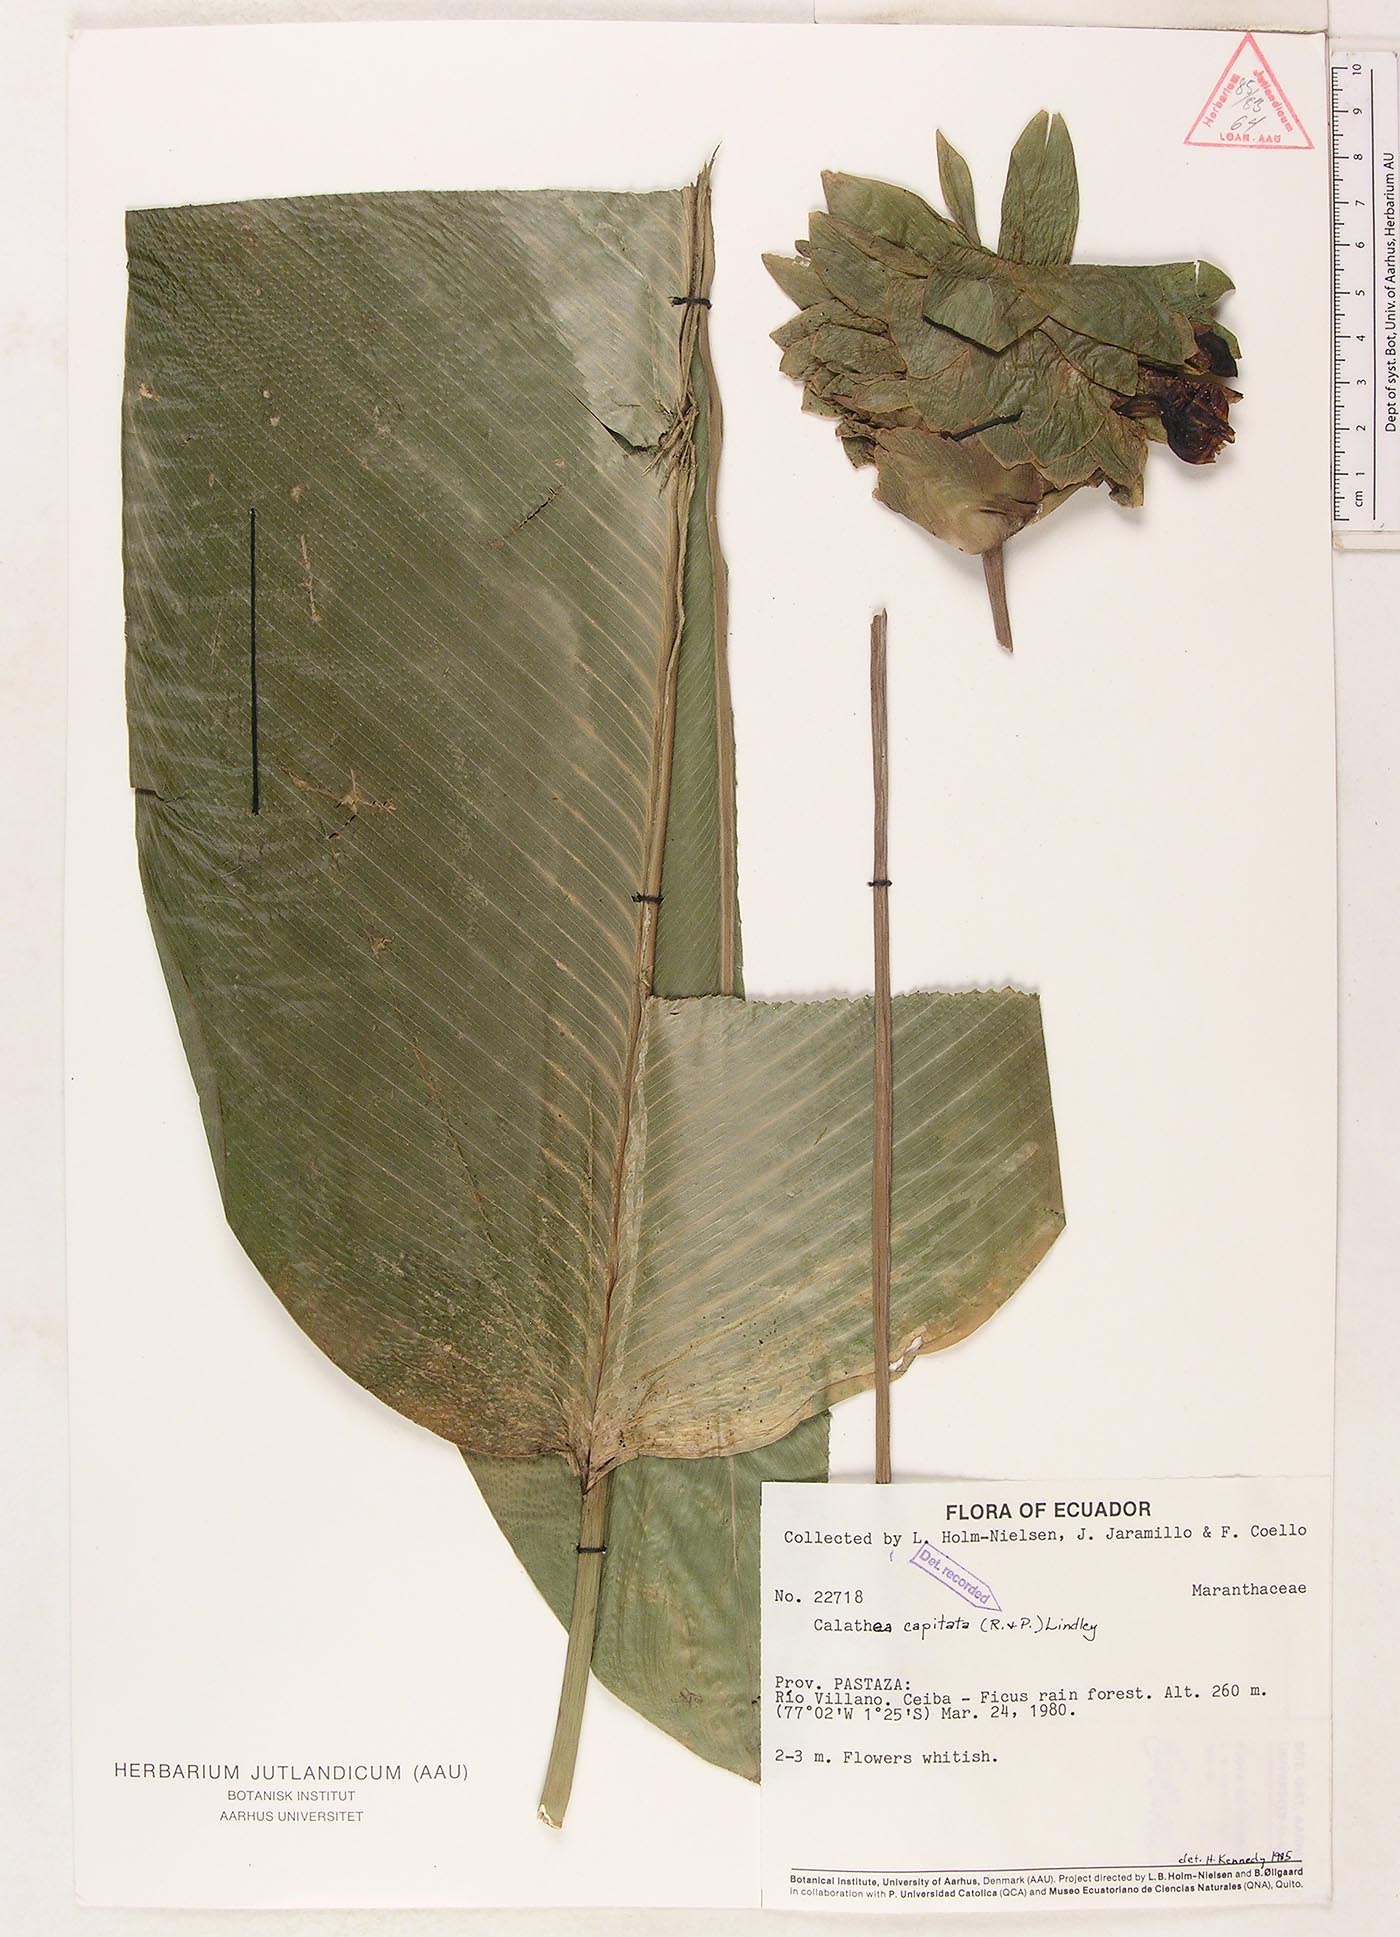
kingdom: Plantae
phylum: Tracheophyta
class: Liliopsida
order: Zingiberales
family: Marantaceae
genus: Goeppertia
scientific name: Goeppertia capitata
